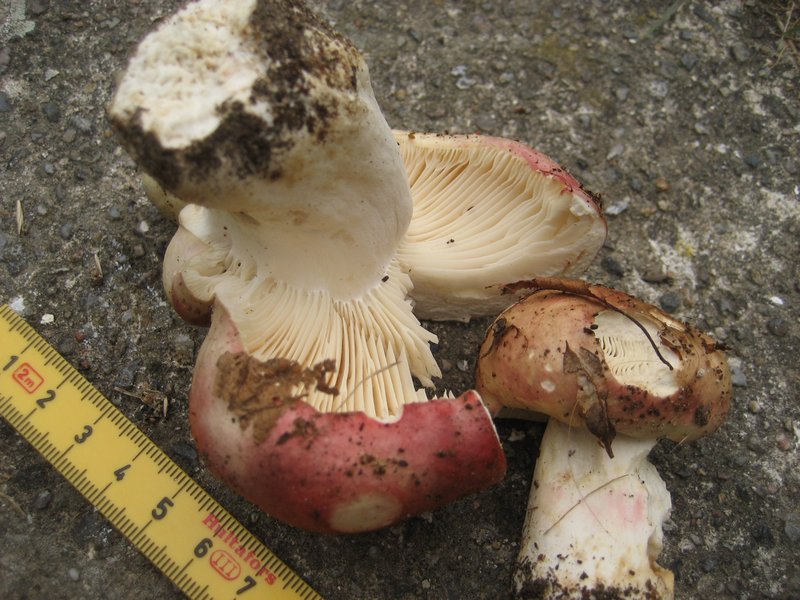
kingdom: Fungi
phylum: Basidiomycota
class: Agaricomycetes
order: Russulales
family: Russulaceae
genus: Russula
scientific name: Russula depallens
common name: falmende skørhat
